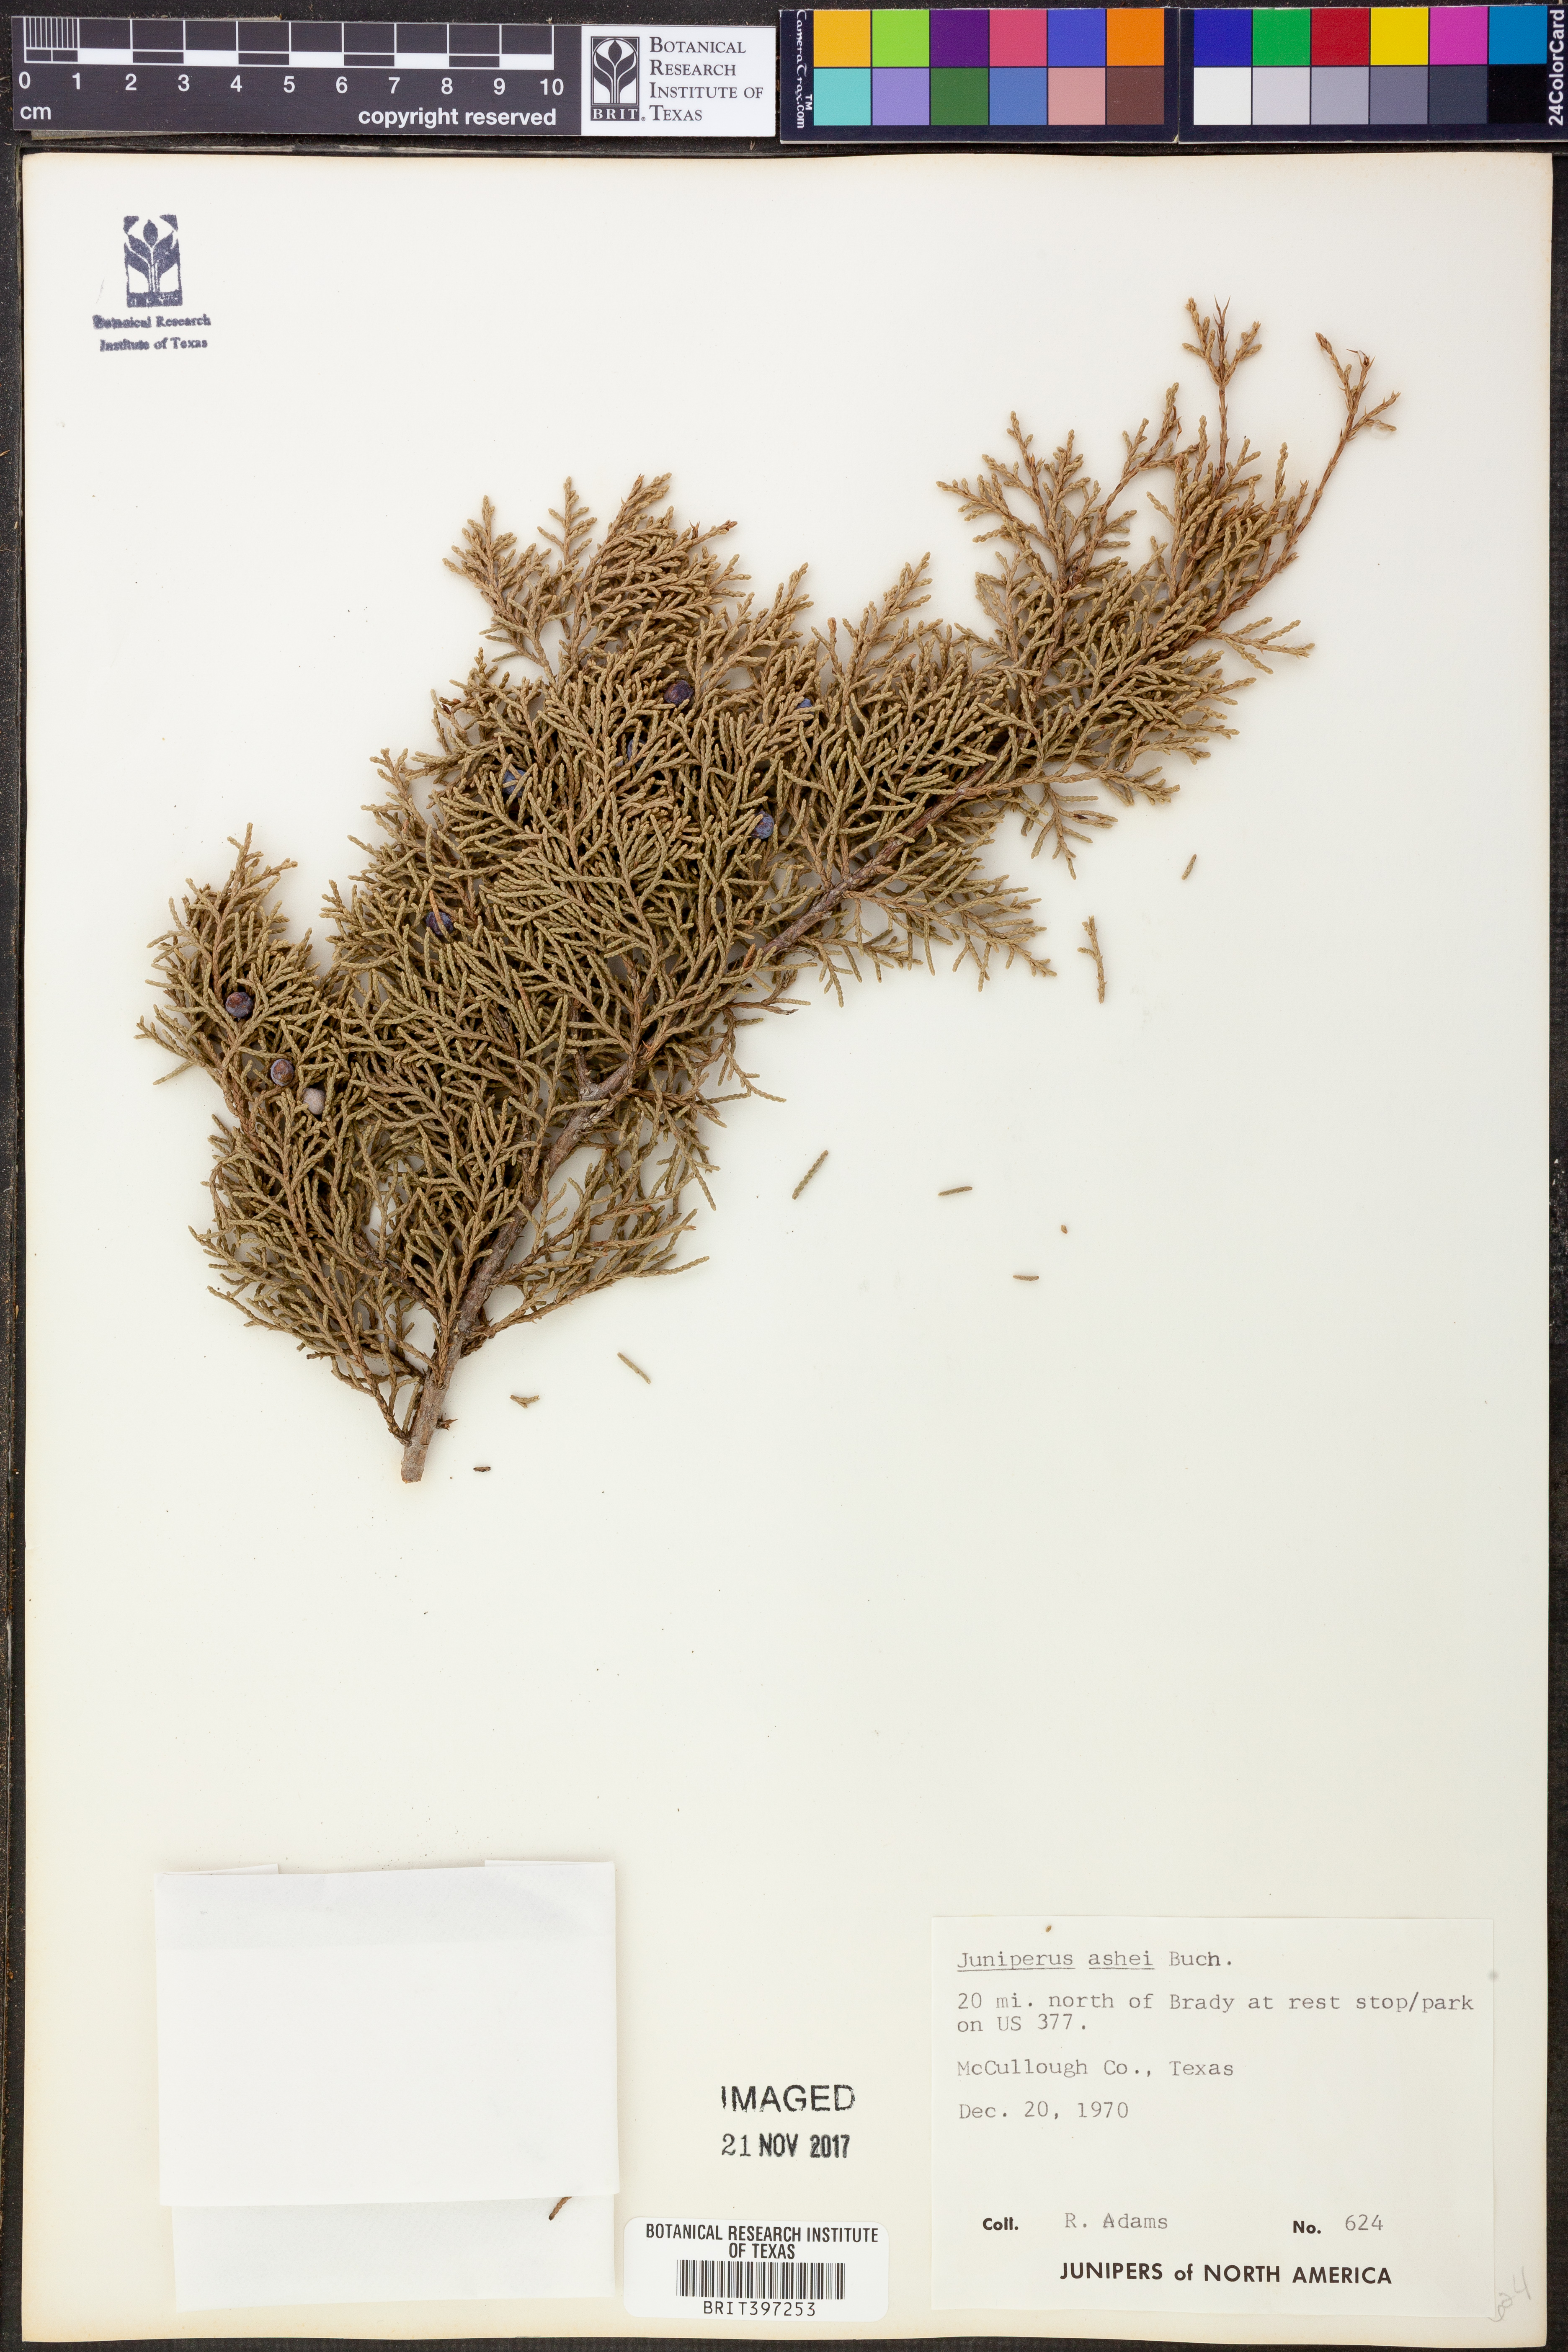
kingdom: Plantae
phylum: Tracheophyta
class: Pinopsida
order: Pinales
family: Cupressaceae
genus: Juniperus
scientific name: Juniperus ashei
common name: Mexican juniper
